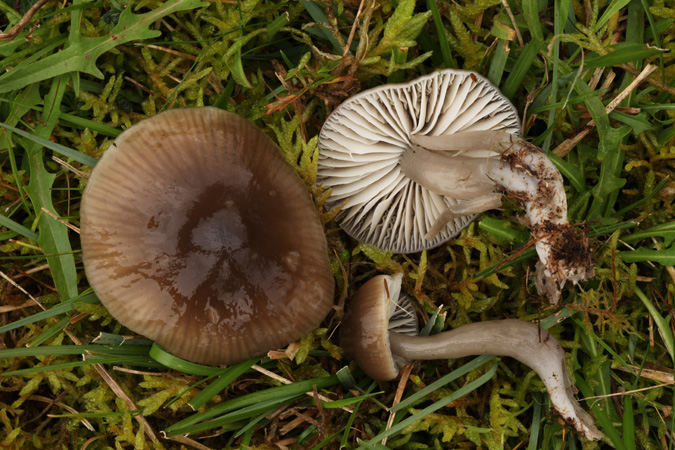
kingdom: Fungi
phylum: Basidiomycota
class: Agaricomycetes
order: Agaricales
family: Hygrophoraceae
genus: Gliophorus
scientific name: Gliophorus irrigatus
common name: slimet vokshat
